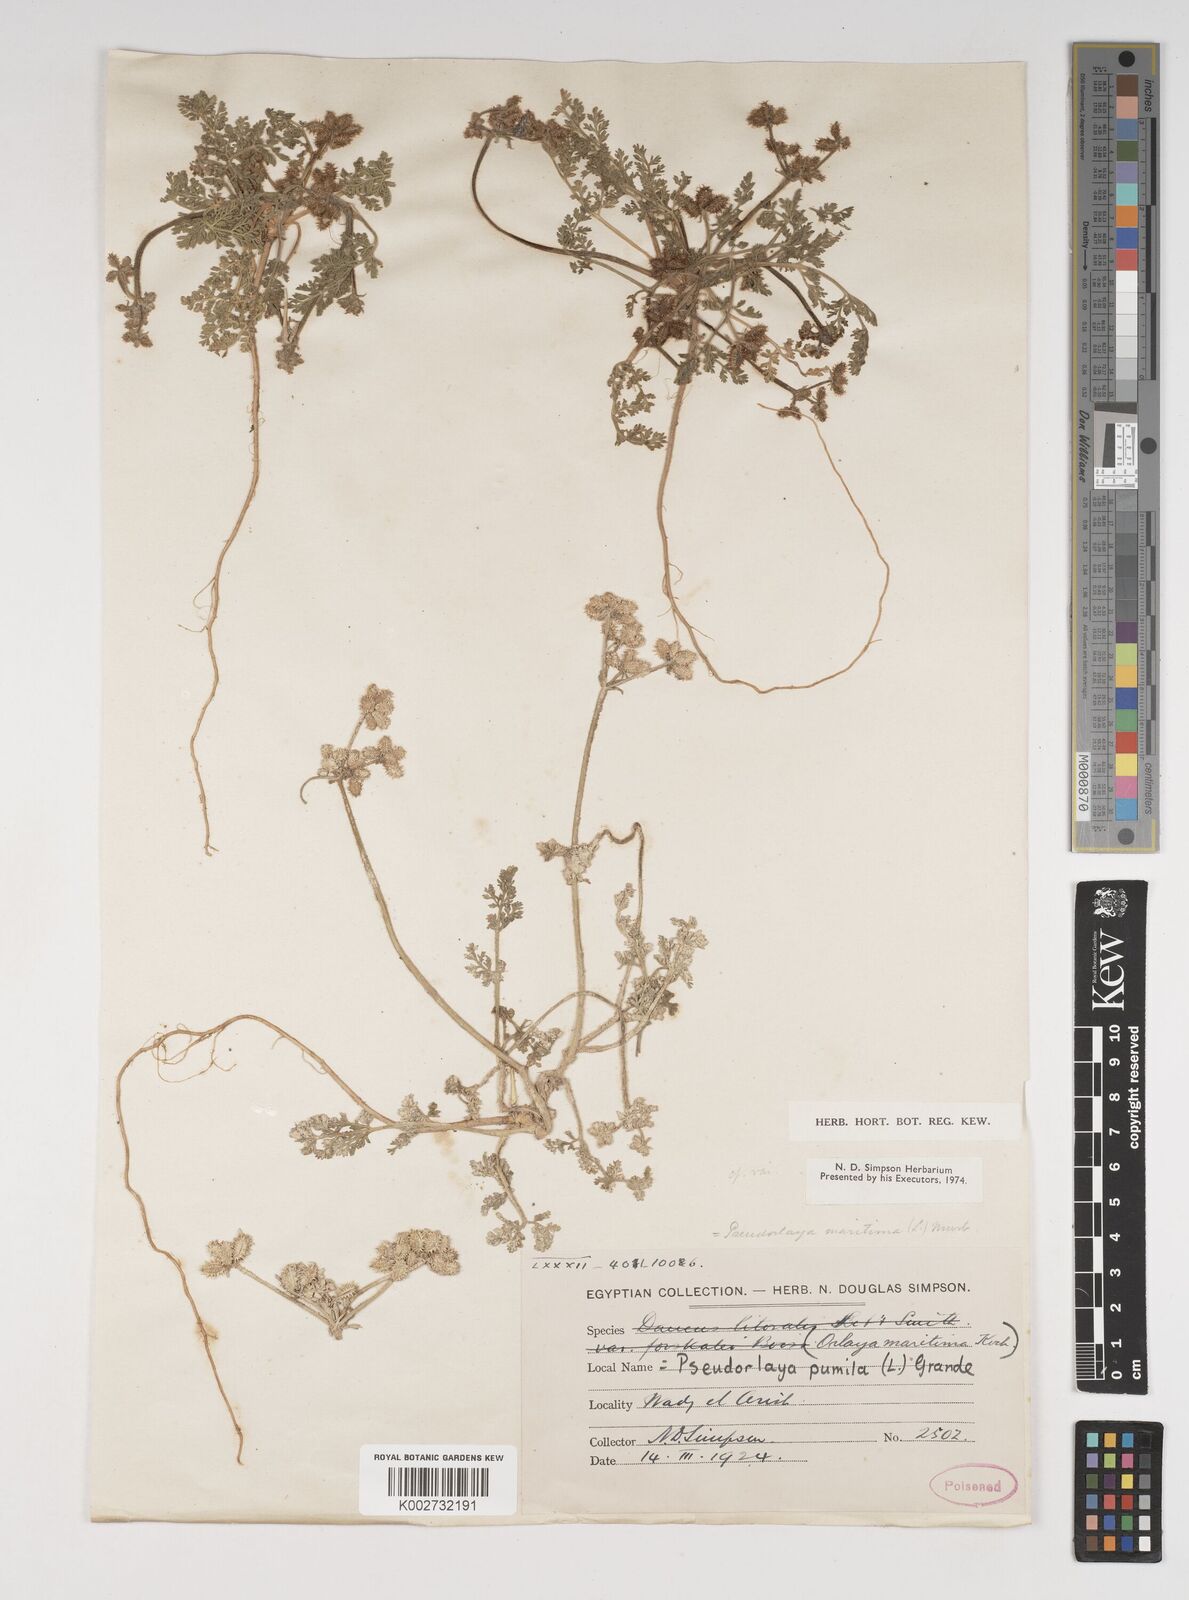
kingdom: Plantae
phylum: Tracheophyta
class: Magnoliopsida
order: Apiales
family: Apiaceae
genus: Daucus
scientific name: Daucus pumilus
